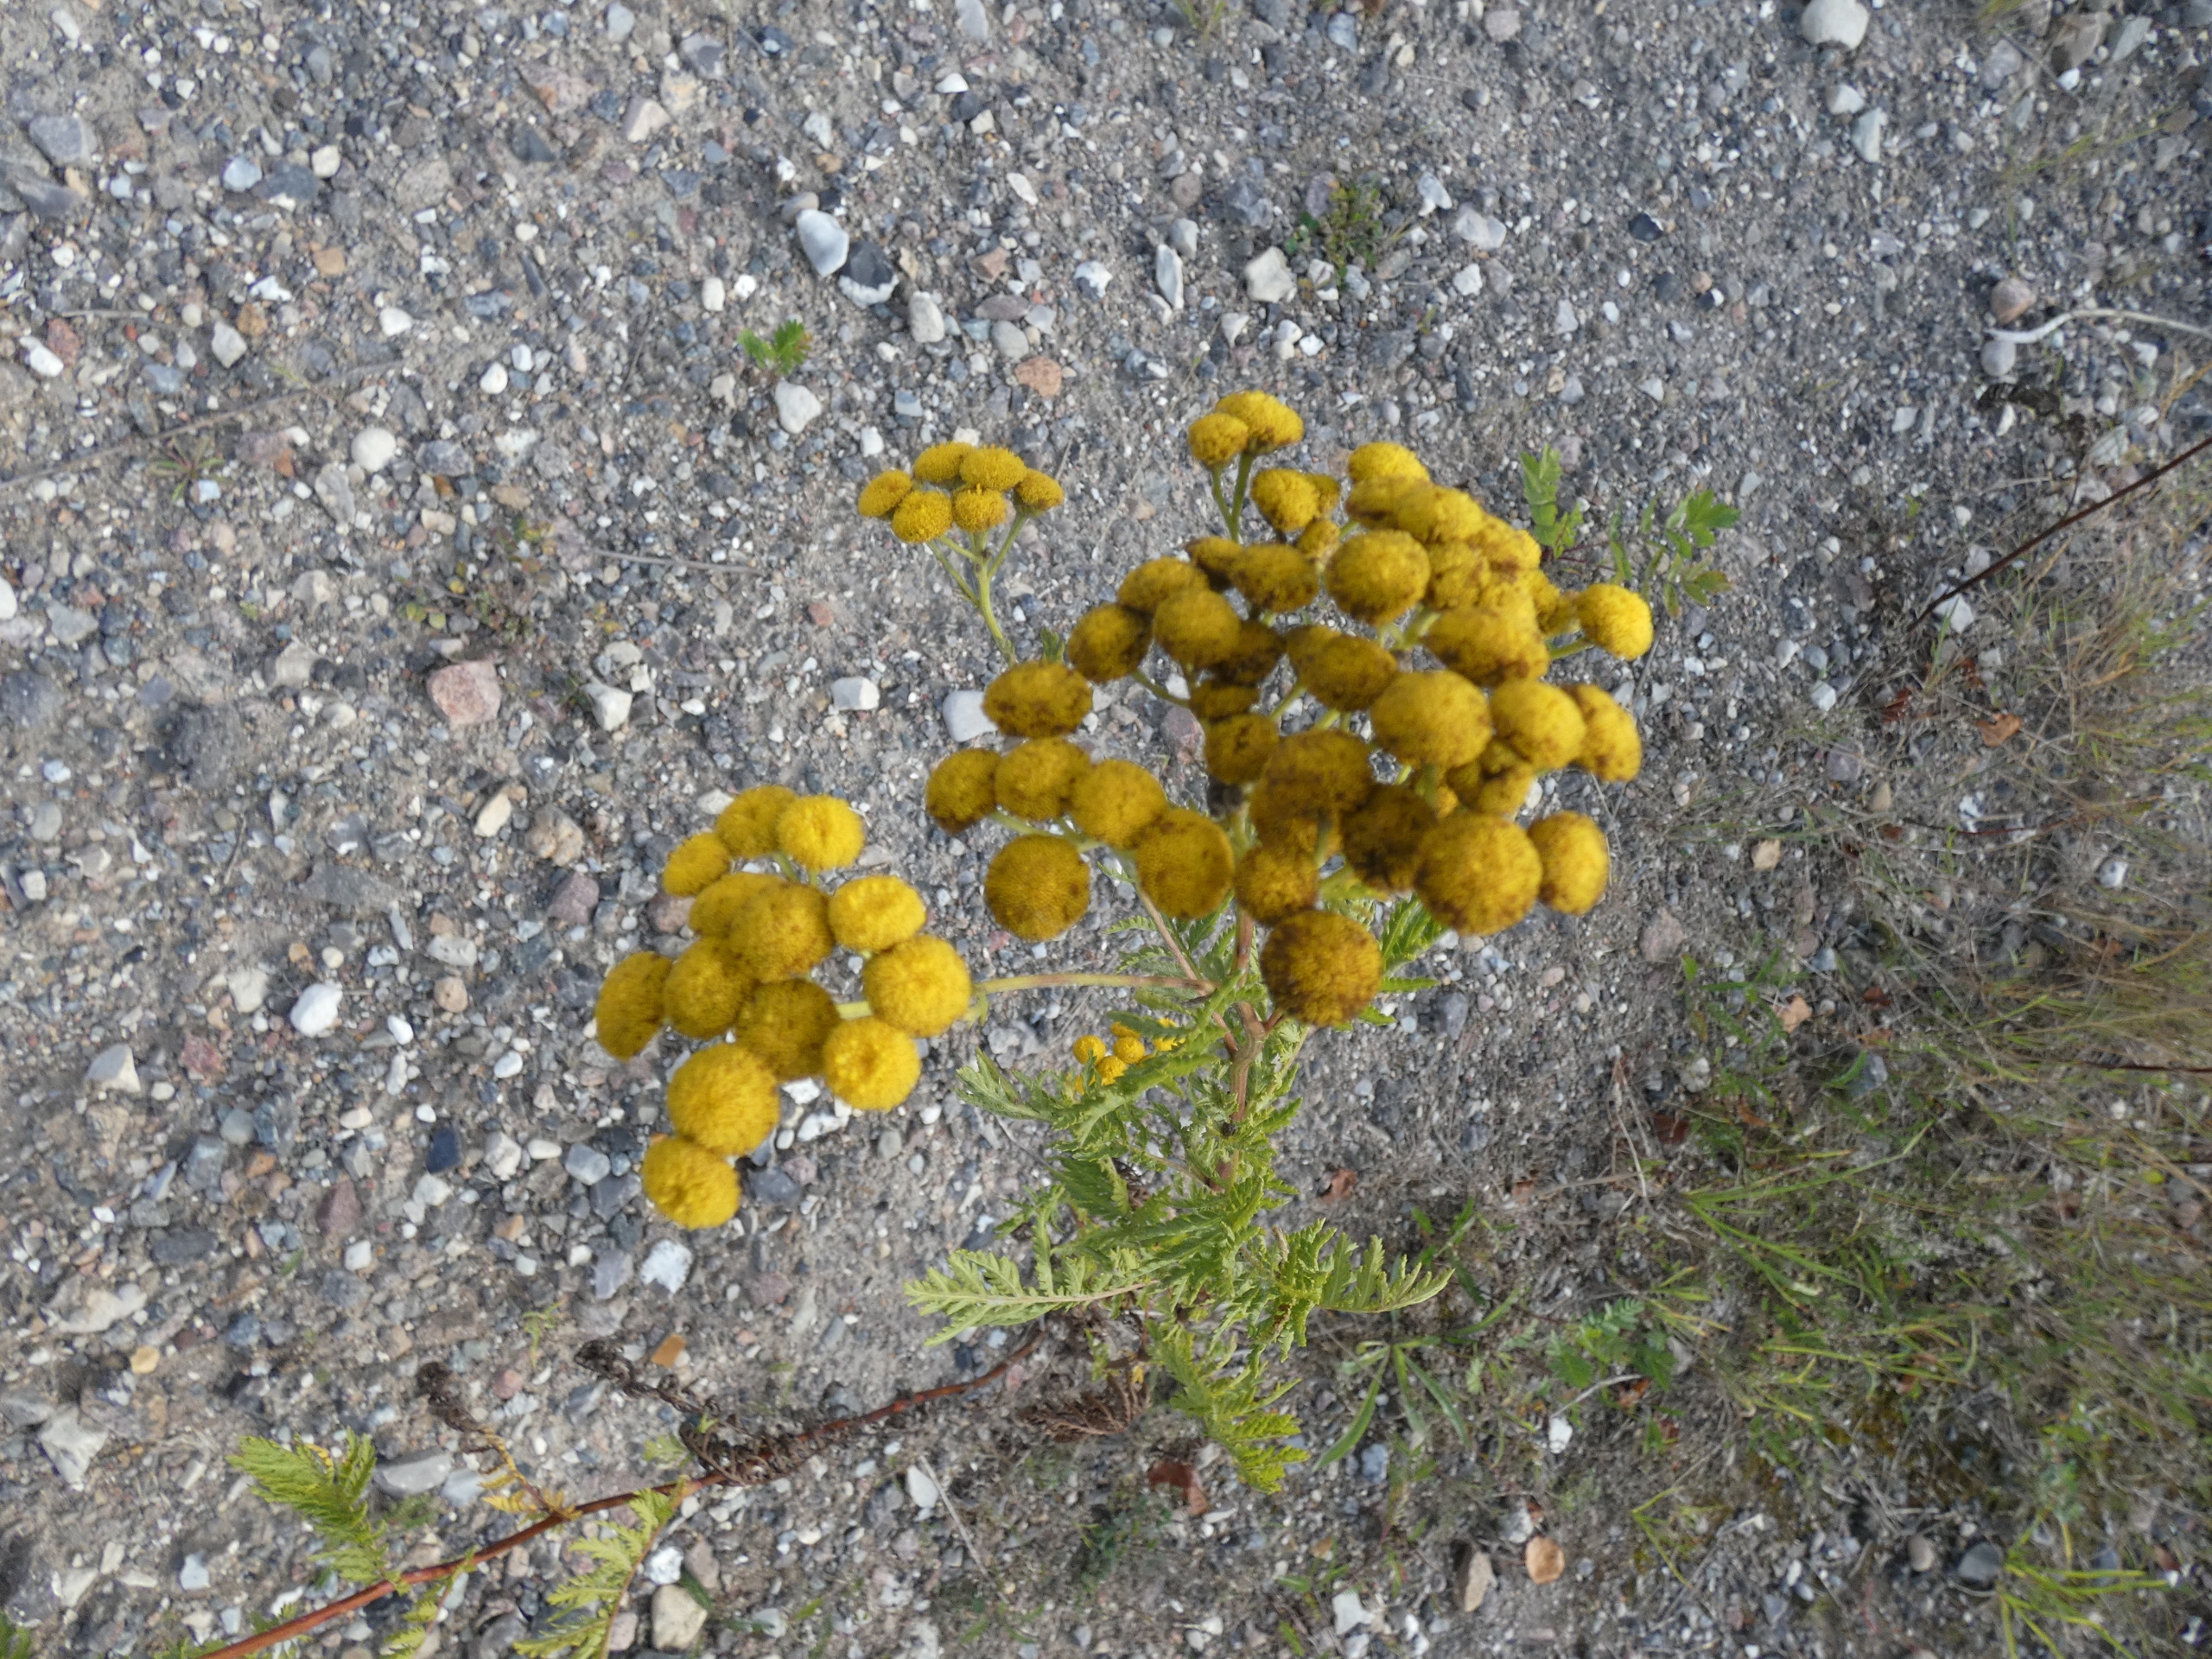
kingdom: Plantae
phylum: Tracheophyta
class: Magnoliopsida
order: Asterales
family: Asteraceae
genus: Tanacetum
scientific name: Tanacetum vulgare
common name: Rejnfan
